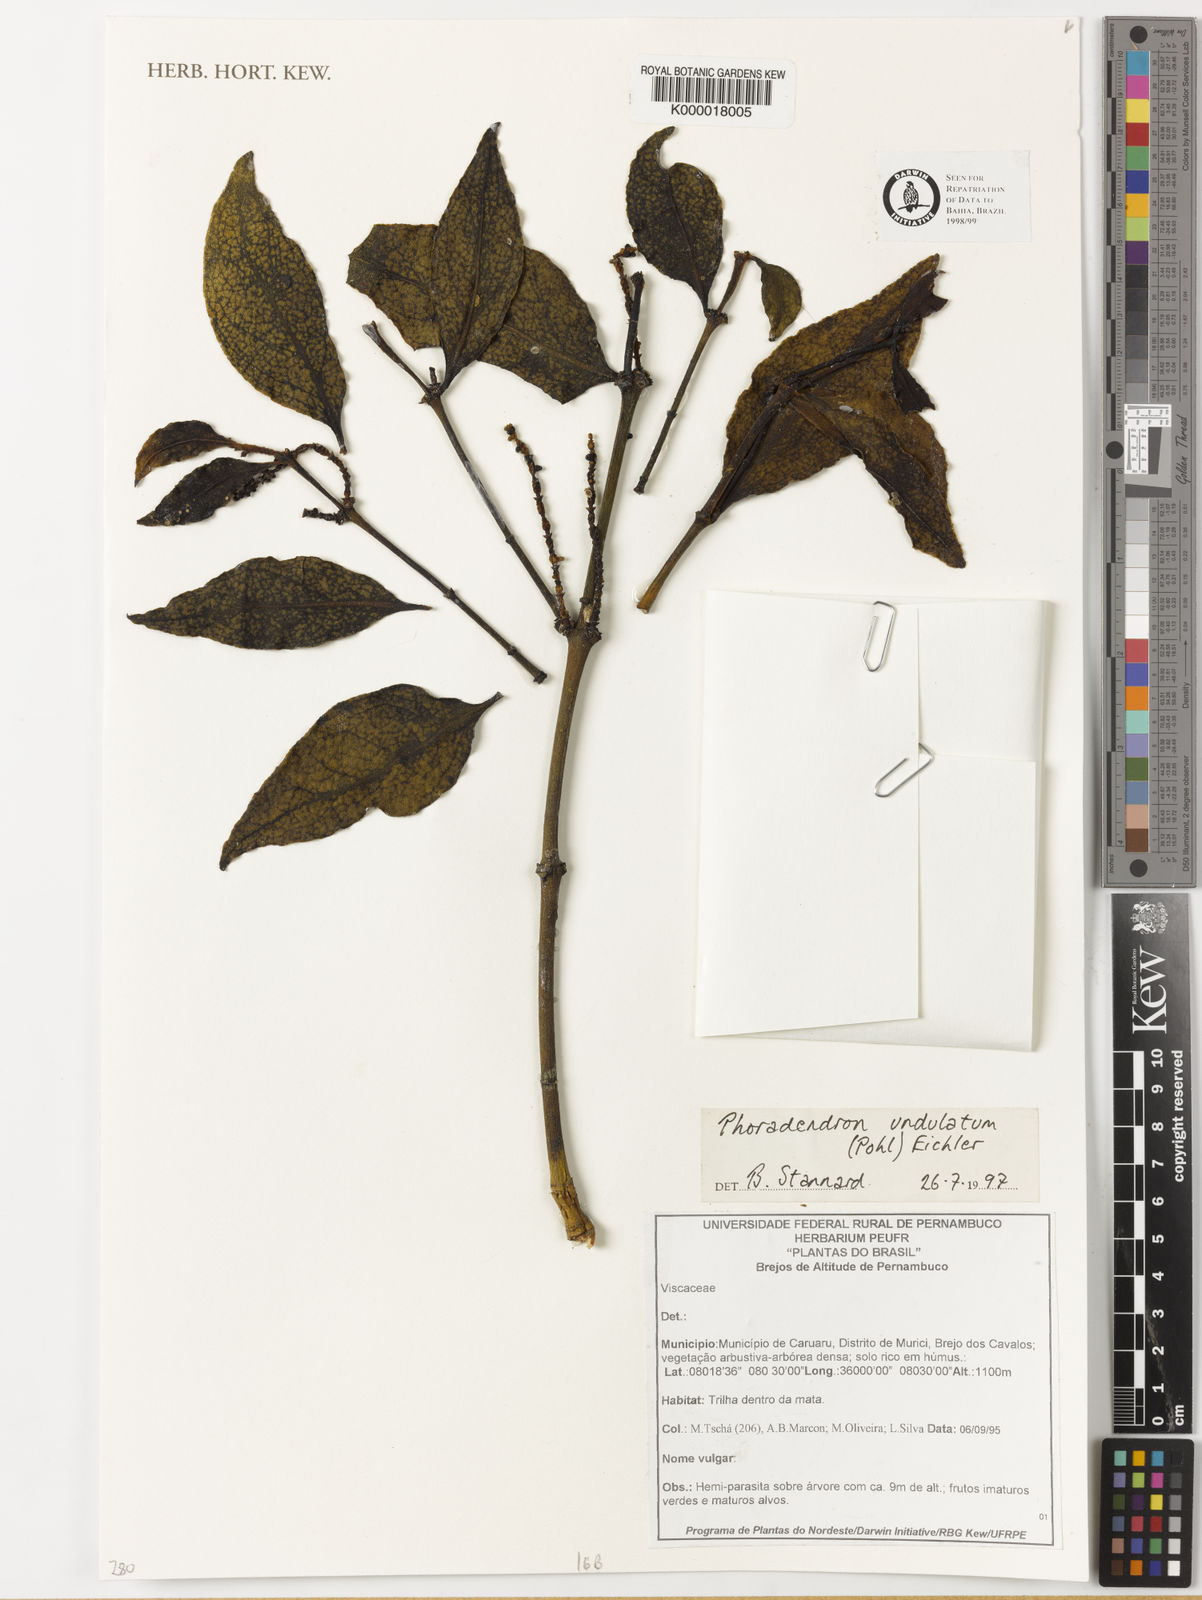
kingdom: Plantae
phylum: Tracheophyta
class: Magnoliopsida
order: Santalales
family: Viscaceae
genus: Phoradendron
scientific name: Phoradendron undulatum
